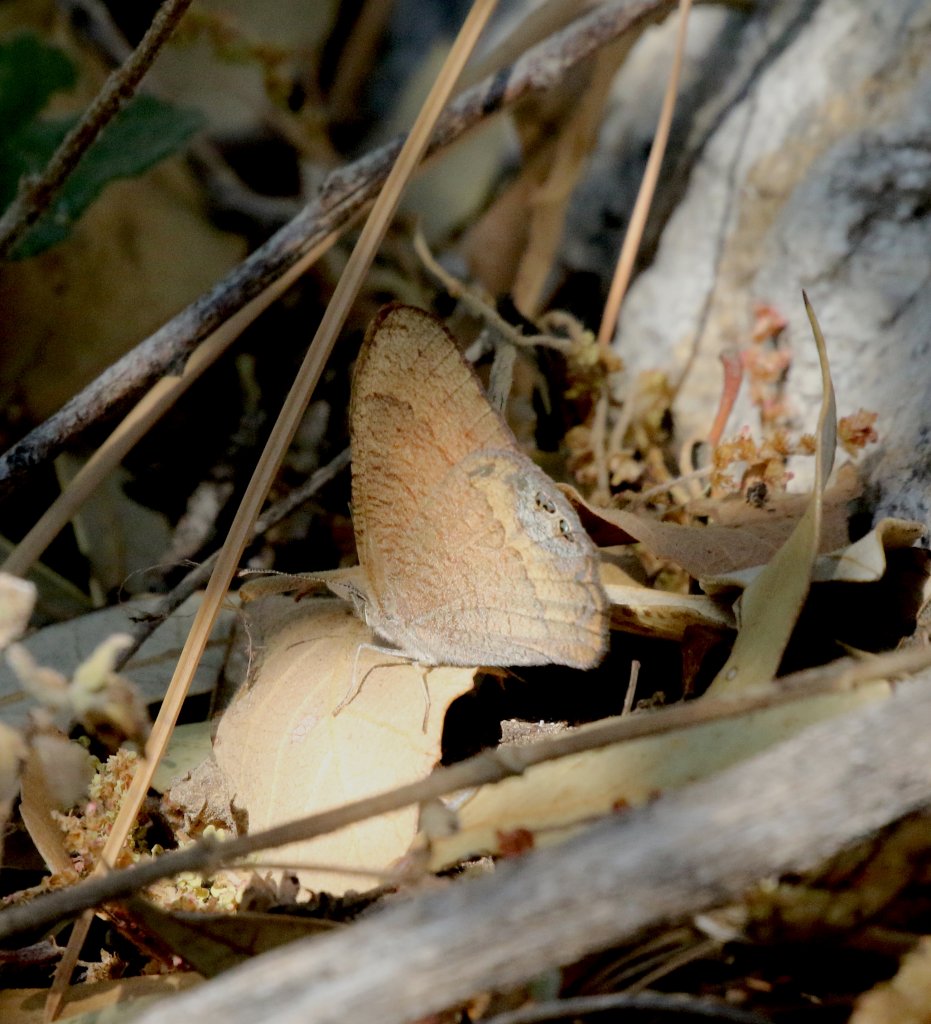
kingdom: Animalia
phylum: Arthropoda
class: Insecta
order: Lepidoptera
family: Nymphalidae
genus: Euptychia
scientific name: Euptychia pyracmon
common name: Nabokov's Satyr
